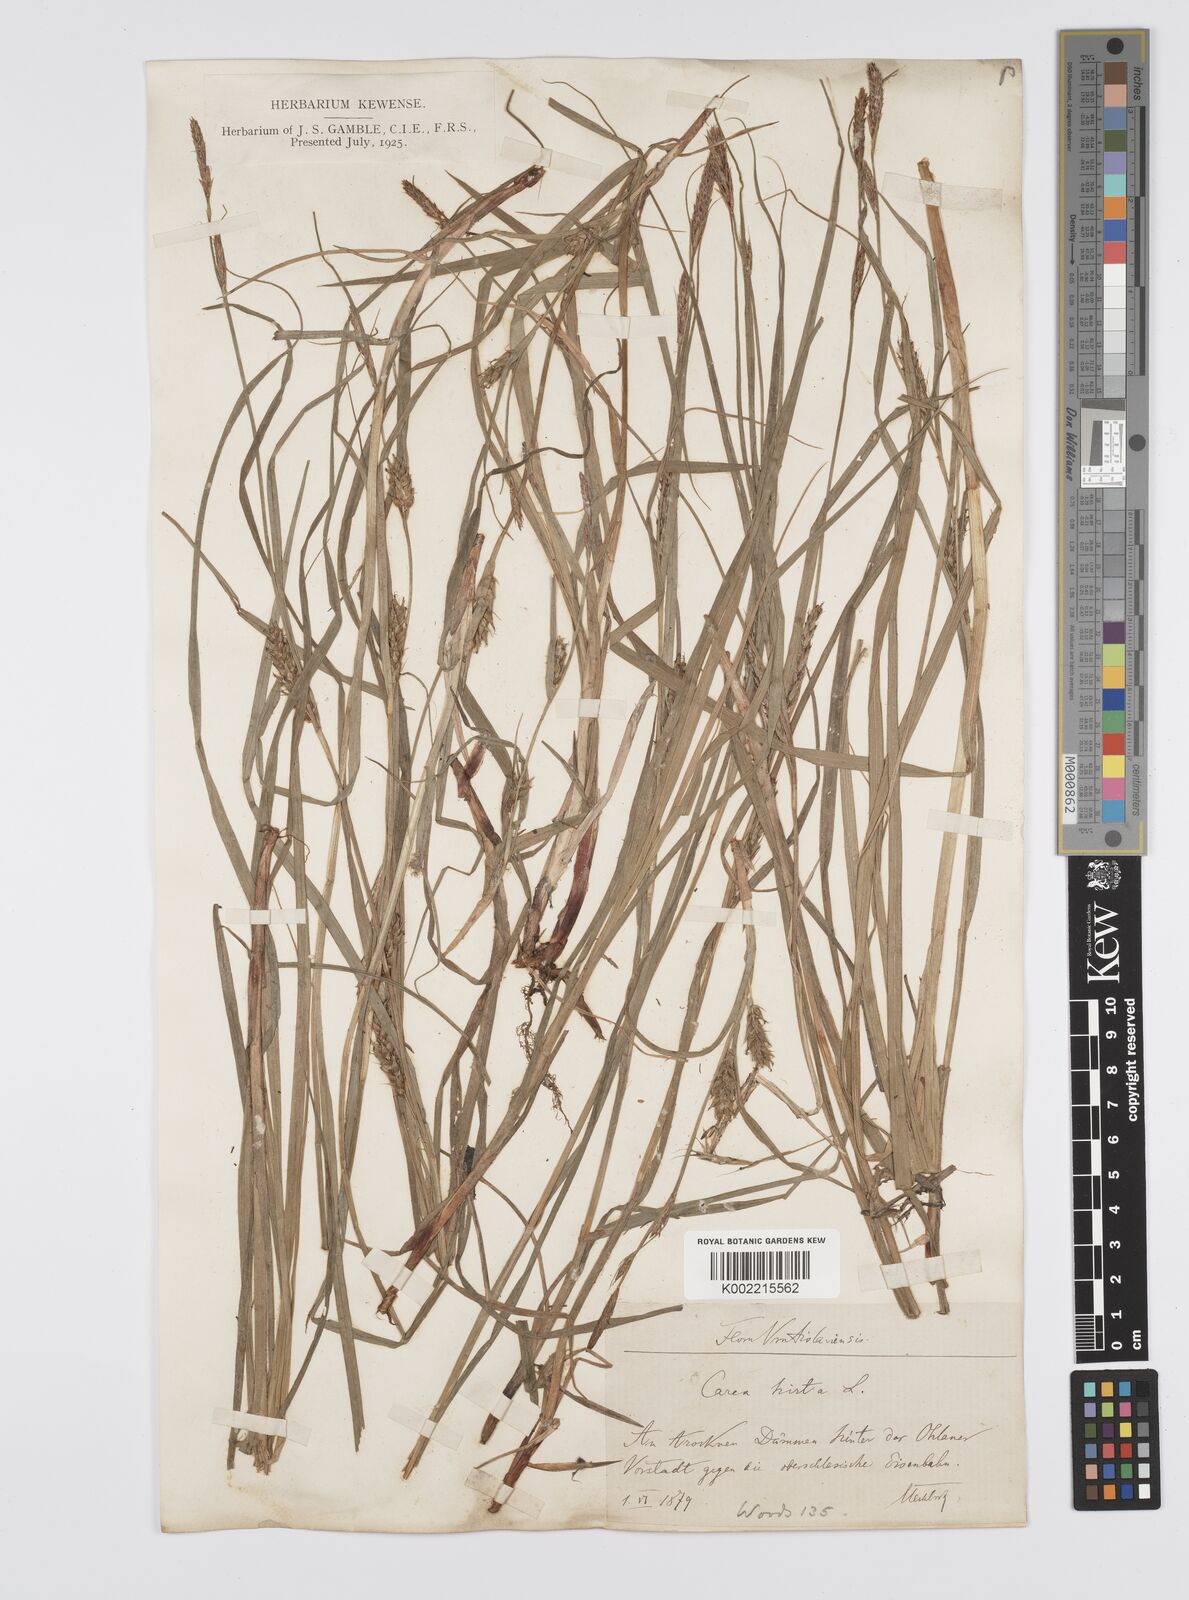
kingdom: Plantae
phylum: Tracheophyta
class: Liliopsida
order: Poales
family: Cyperaceae
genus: Carex
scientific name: Carex hirta
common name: Hairy sedge
